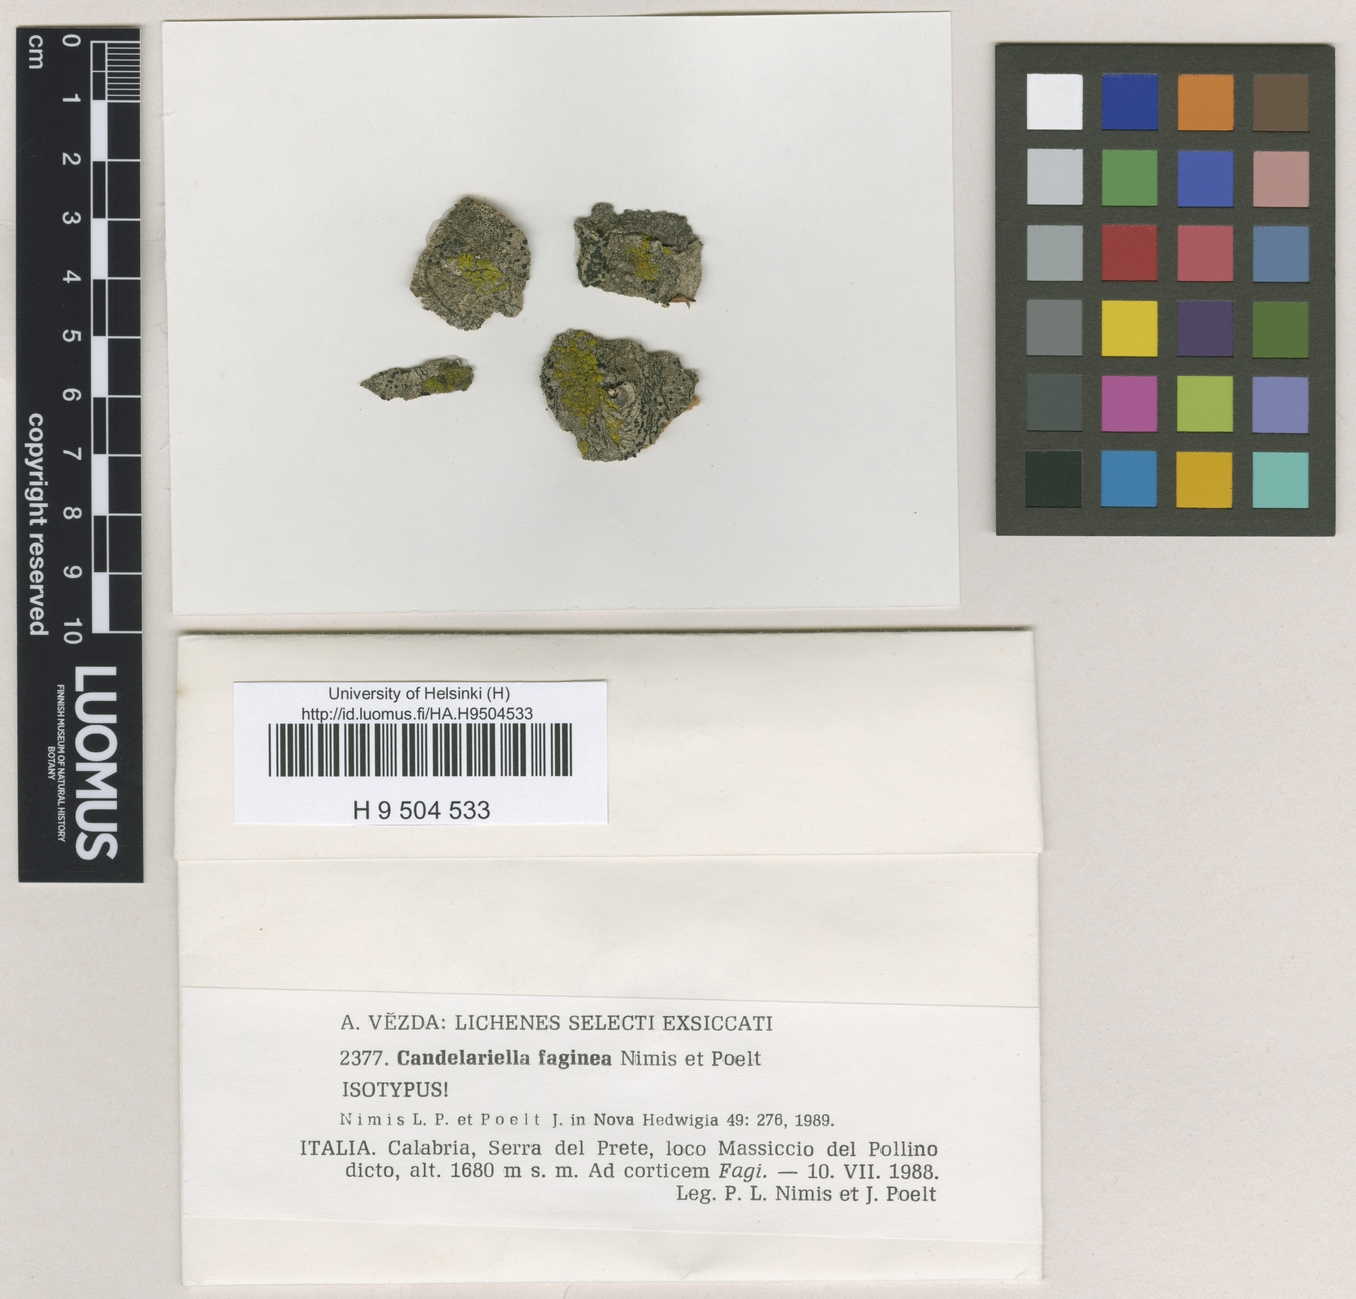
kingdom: Fungi
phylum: Ascomycota
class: Candelariomycetes
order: Candelariales
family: Candelariaceae
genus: Candelariella
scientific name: Candelariella faginea
